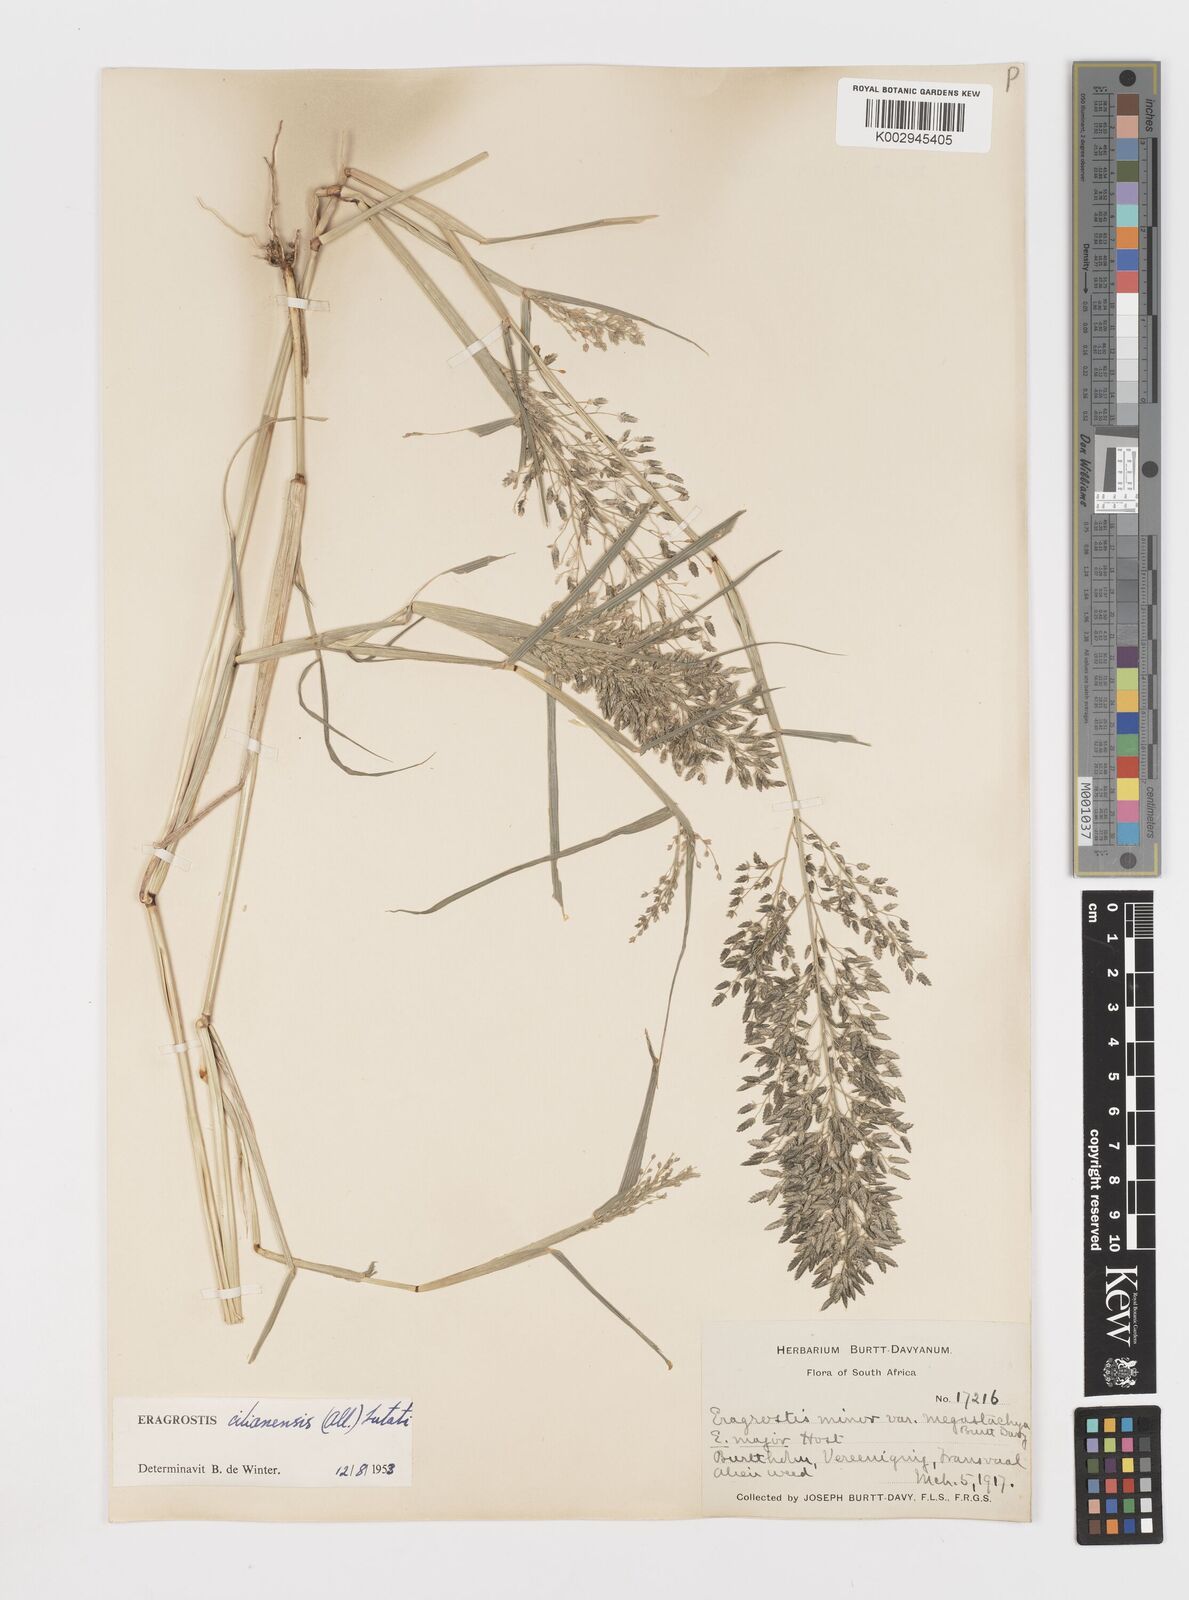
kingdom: Plantae
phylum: Tracheophyta
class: Liliopsida
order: Poales
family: Poaceae
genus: Eragrostis
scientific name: Eragrostis cilianensis
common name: Stinkgrass
